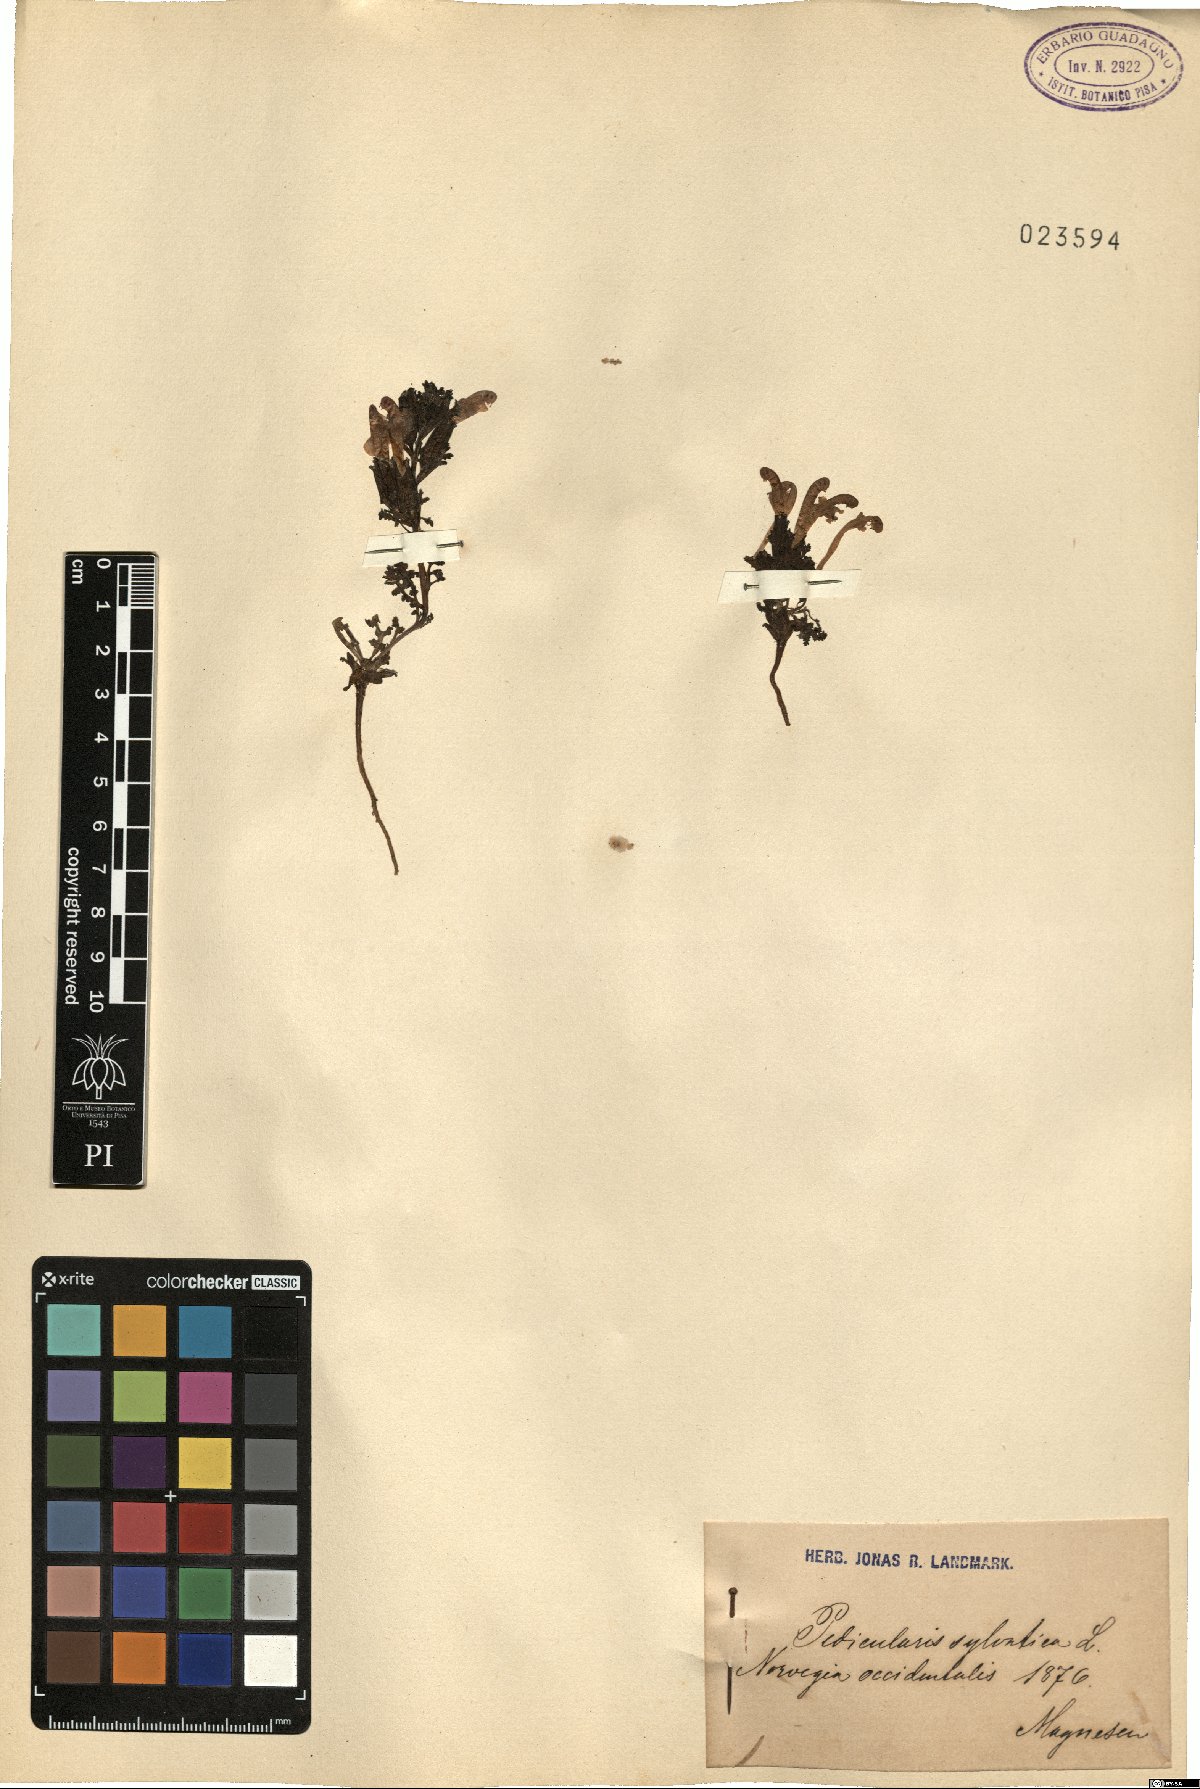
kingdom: Plantae
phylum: Tracheophyta
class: Magnoliopsida
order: Lamiales
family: Orobanchaceae
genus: Pedicularis
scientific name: Pedicularis sylvatica
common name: Lousewort
